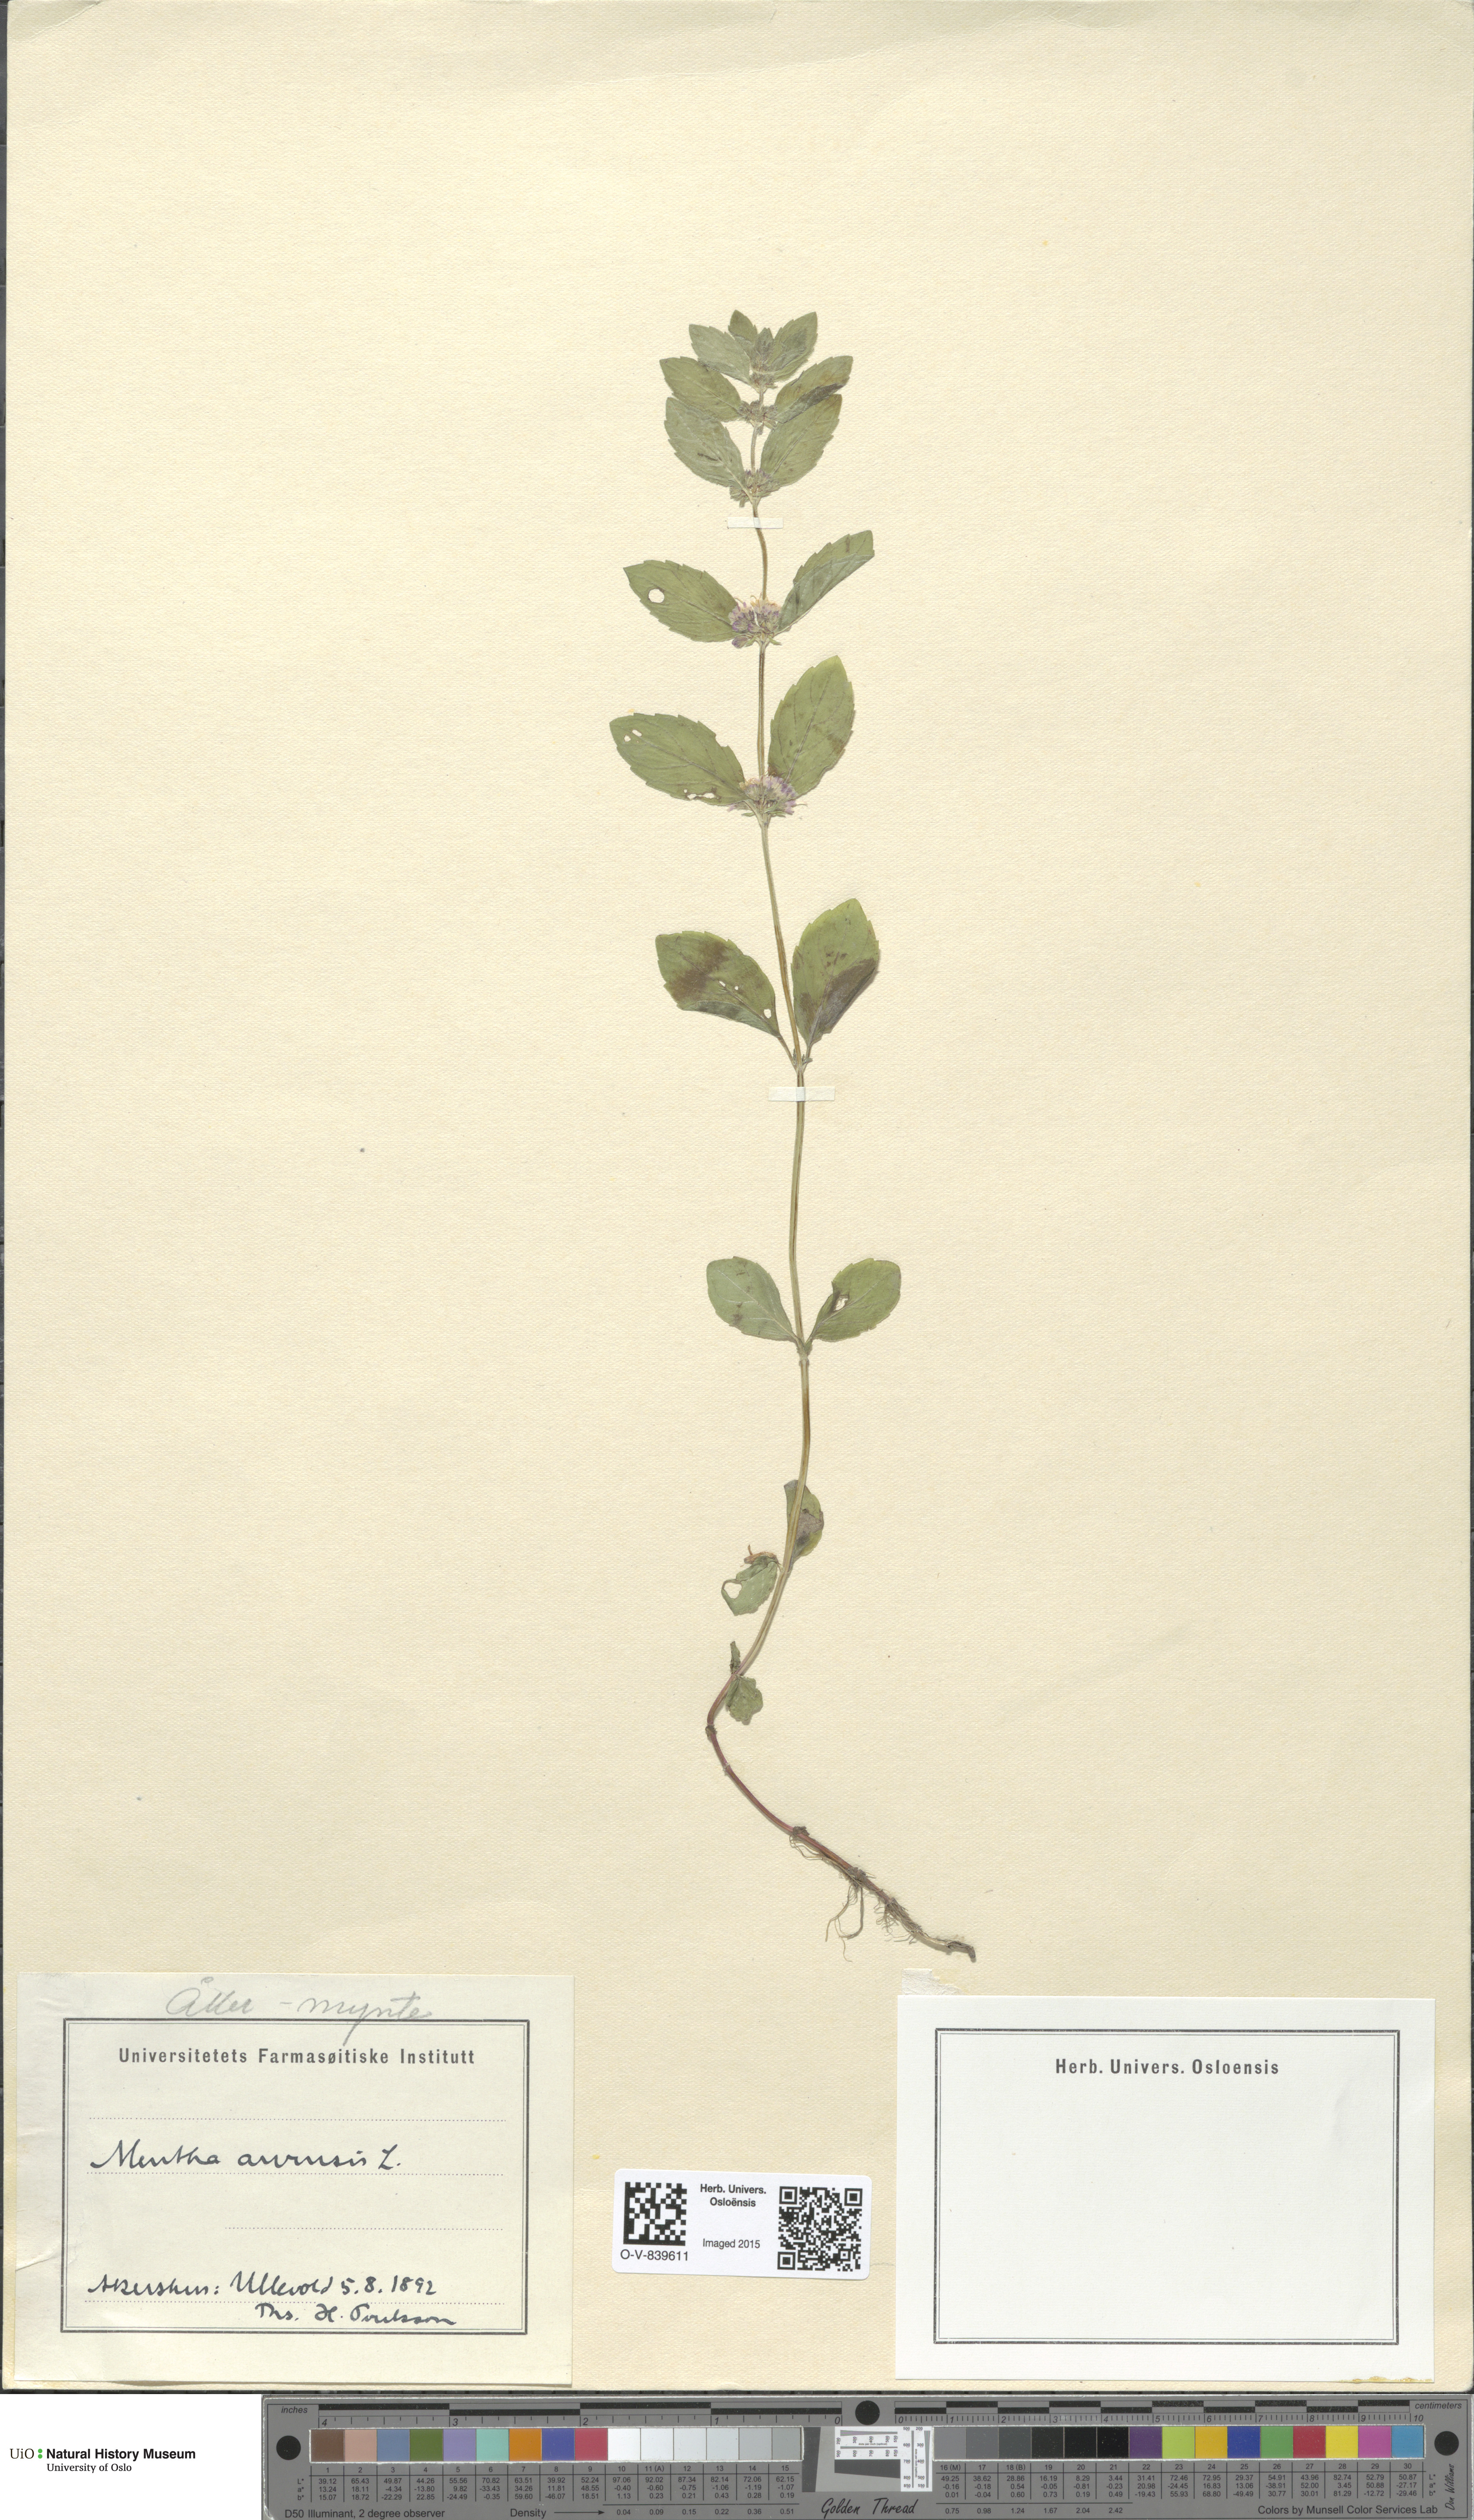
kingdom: Plantae
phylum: Tracheophyta
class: Magnoliopsida
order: Lamiales
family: Lamiaceae
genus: Mentha
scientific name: Mentha arvensis
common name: Corn mint
